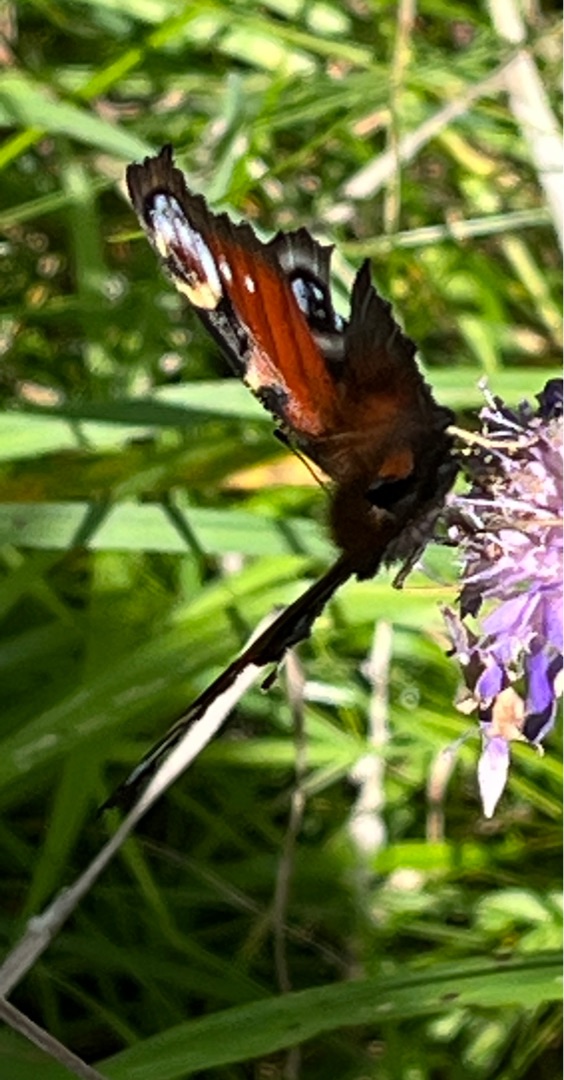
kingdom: Animalia
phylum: Arthropoda
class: Insecta
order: Lepidoptera
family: Nymphalidae
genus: Aglais
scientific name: Aglais io
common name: Dagpåfugleøje
